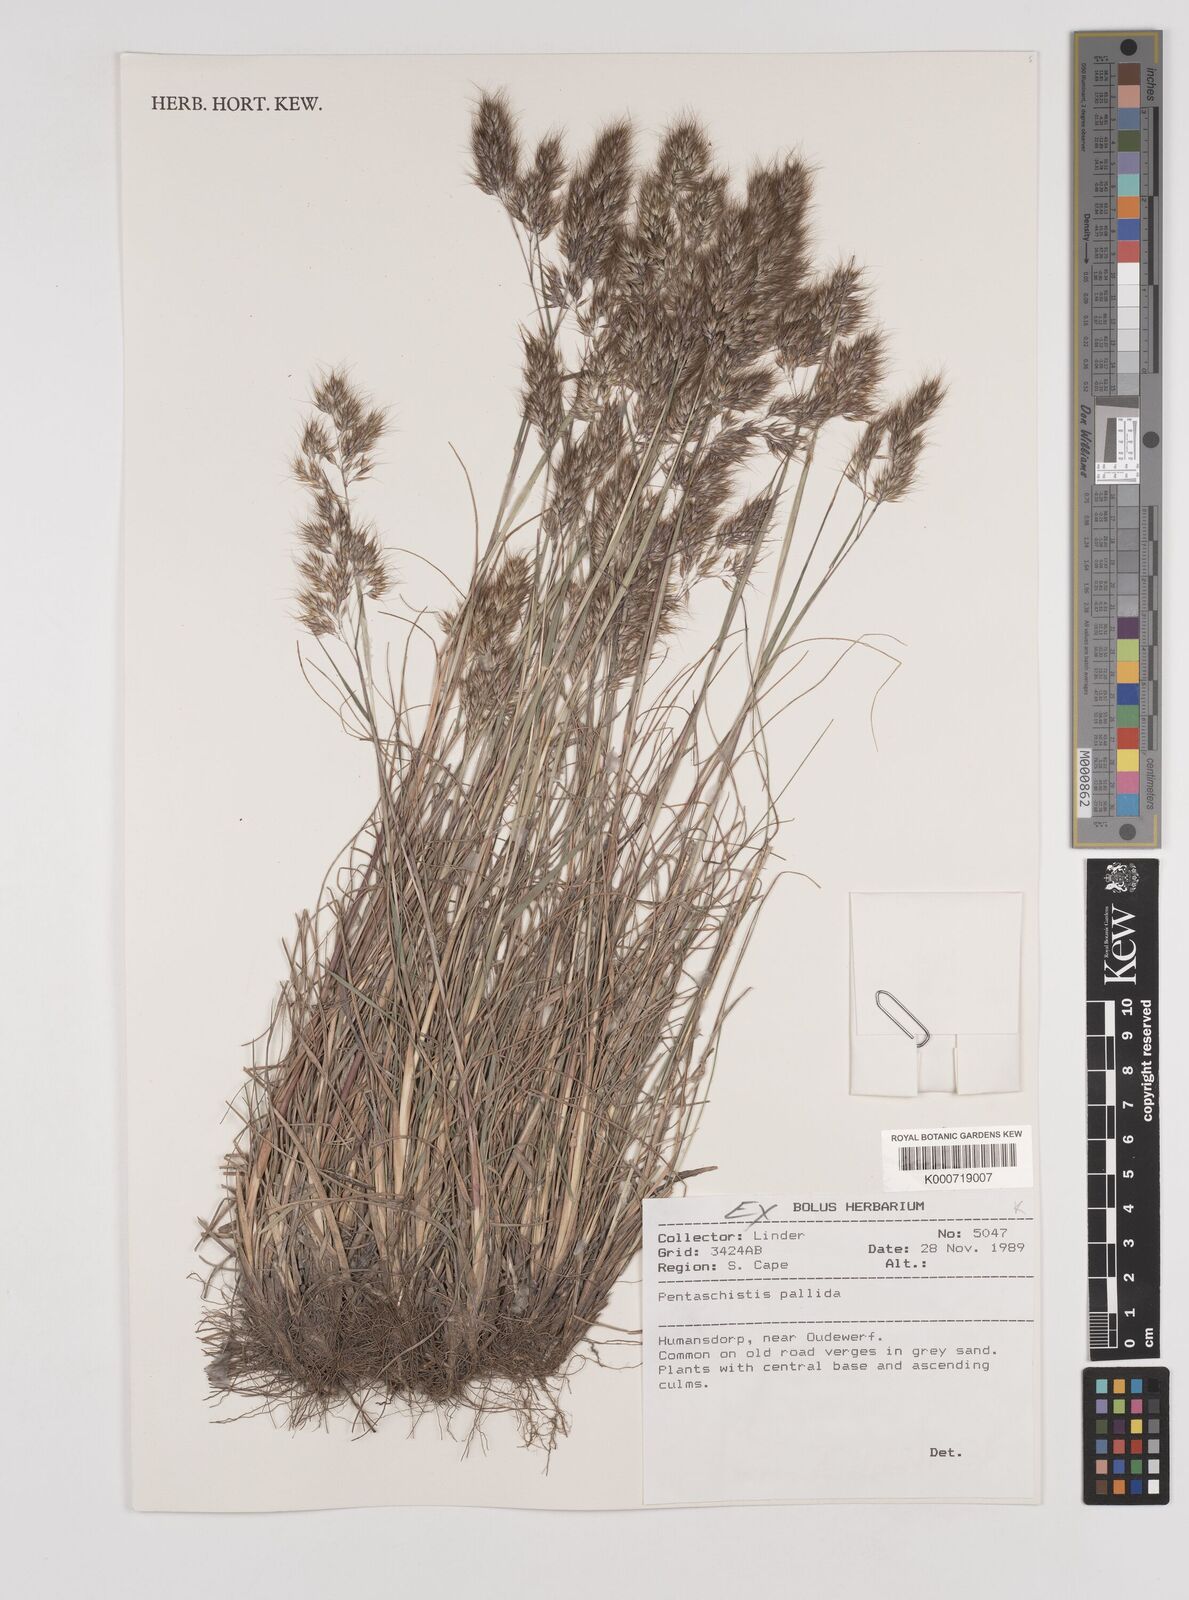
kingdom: Plantae
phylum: Tracheophyta
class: Liliopsida
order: Poales
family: Poaceae
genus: Pentameris
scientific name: Pentameris pallida
